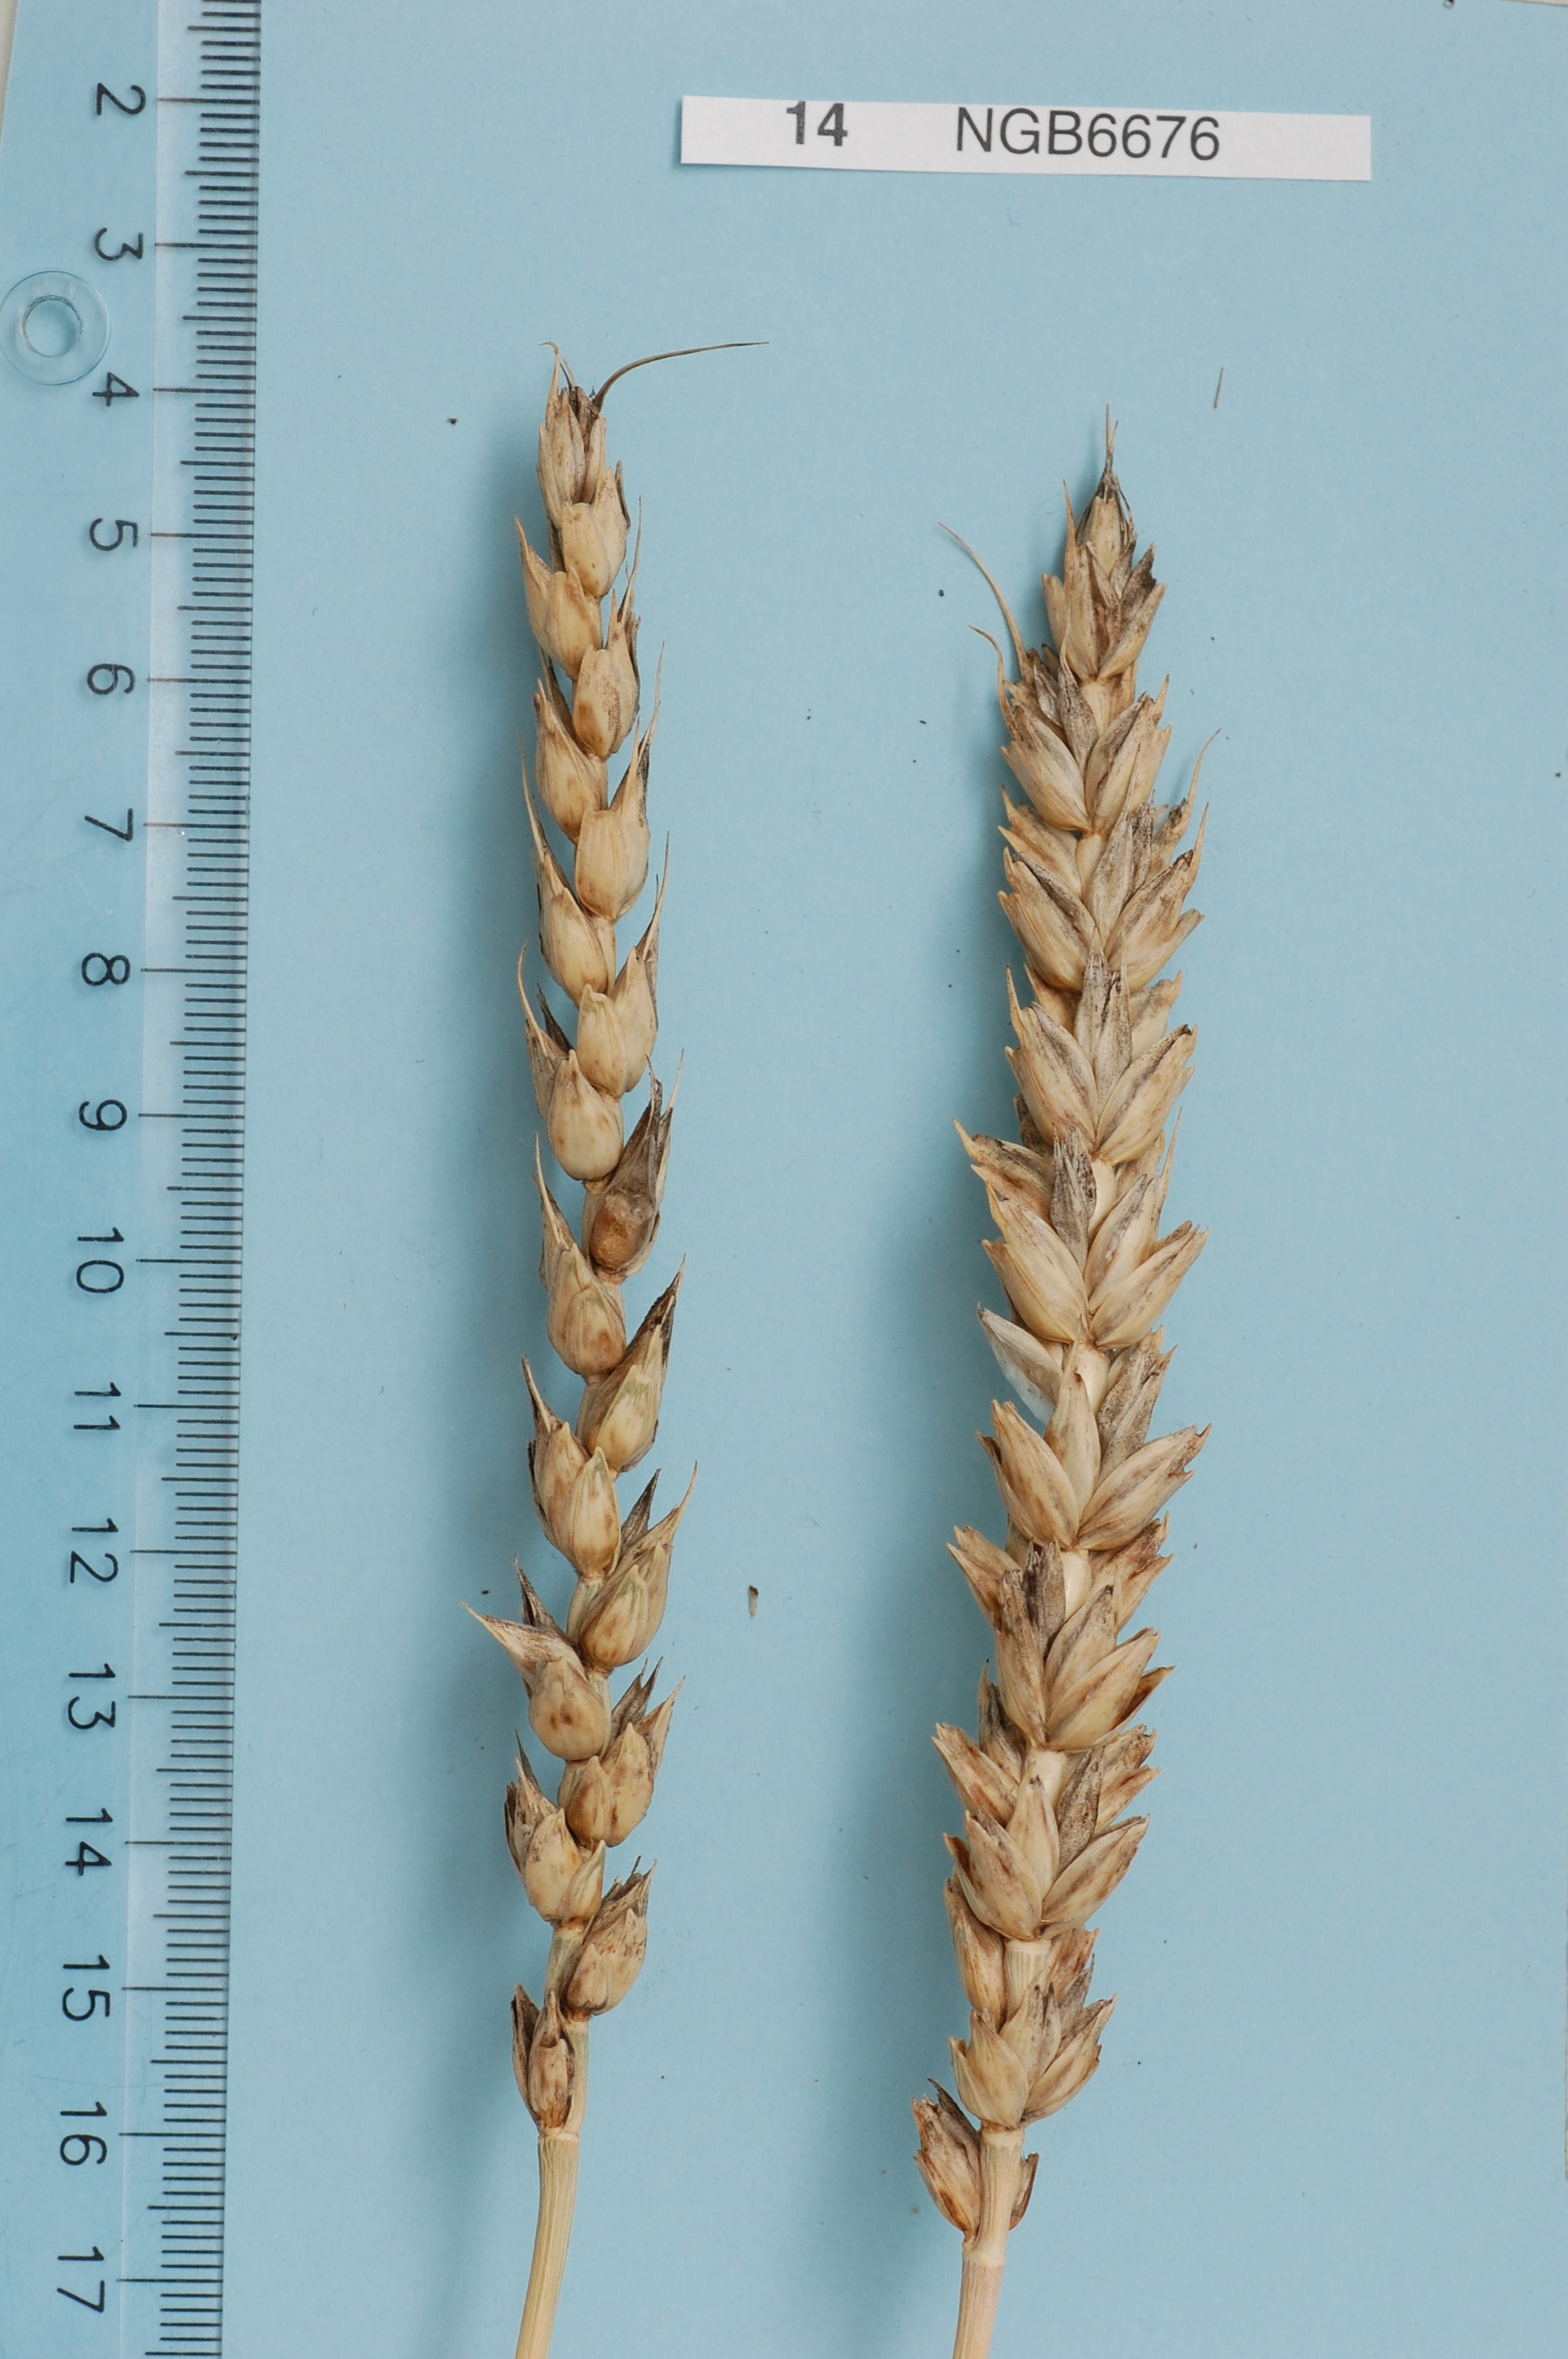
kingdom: Plantae
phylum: Tracheophyta
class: Liliopsida
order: Poales
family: Poaceae
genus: Triticum
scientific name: Triticum aestivum
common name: Common wheat
